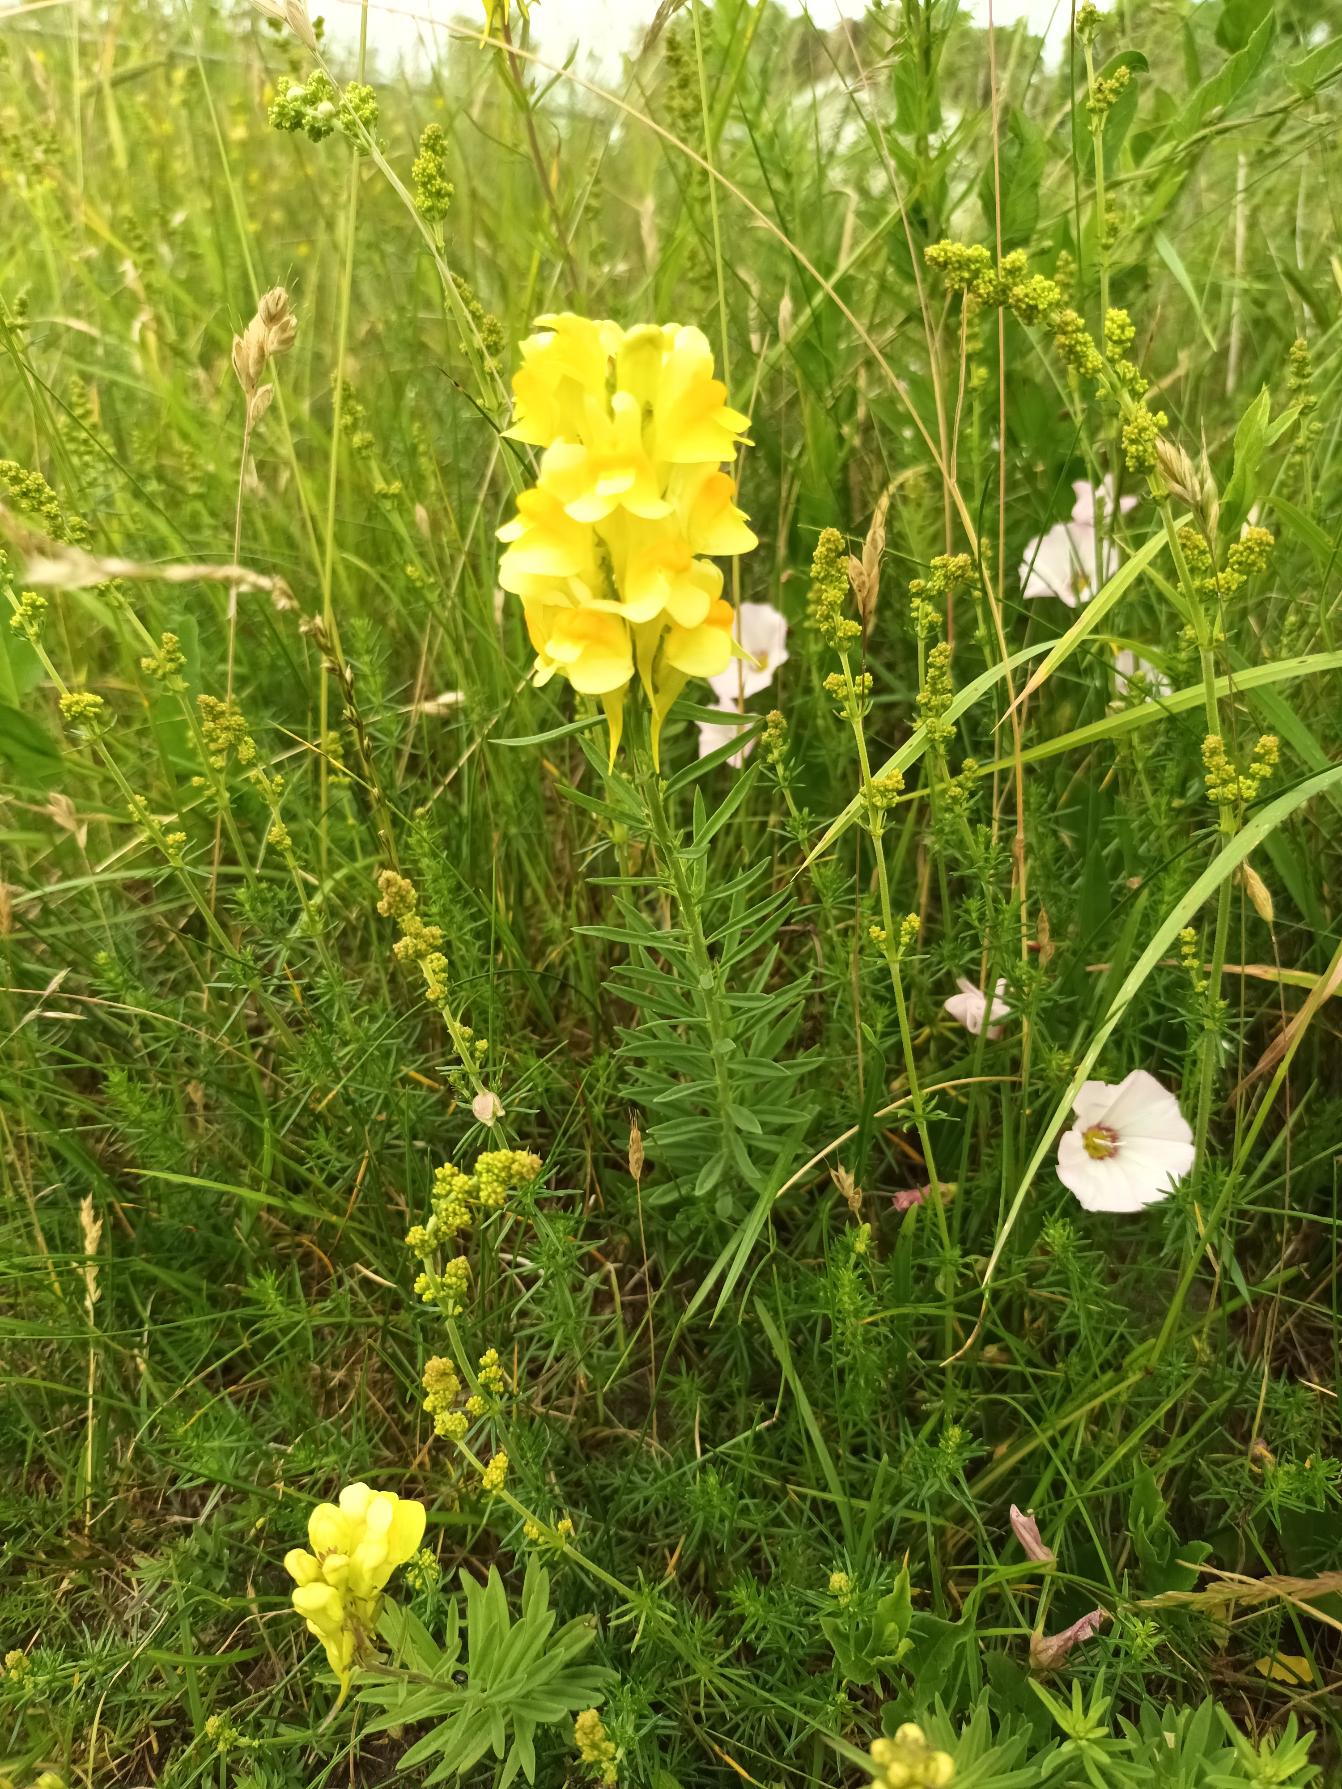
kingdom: Plantae
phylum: Tracheophyta
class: Magnoliopsida
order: Lamiales
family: Plantaginaceae
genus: Linaria
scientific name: Linaria vulgaris
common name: Almindelig torskemund
